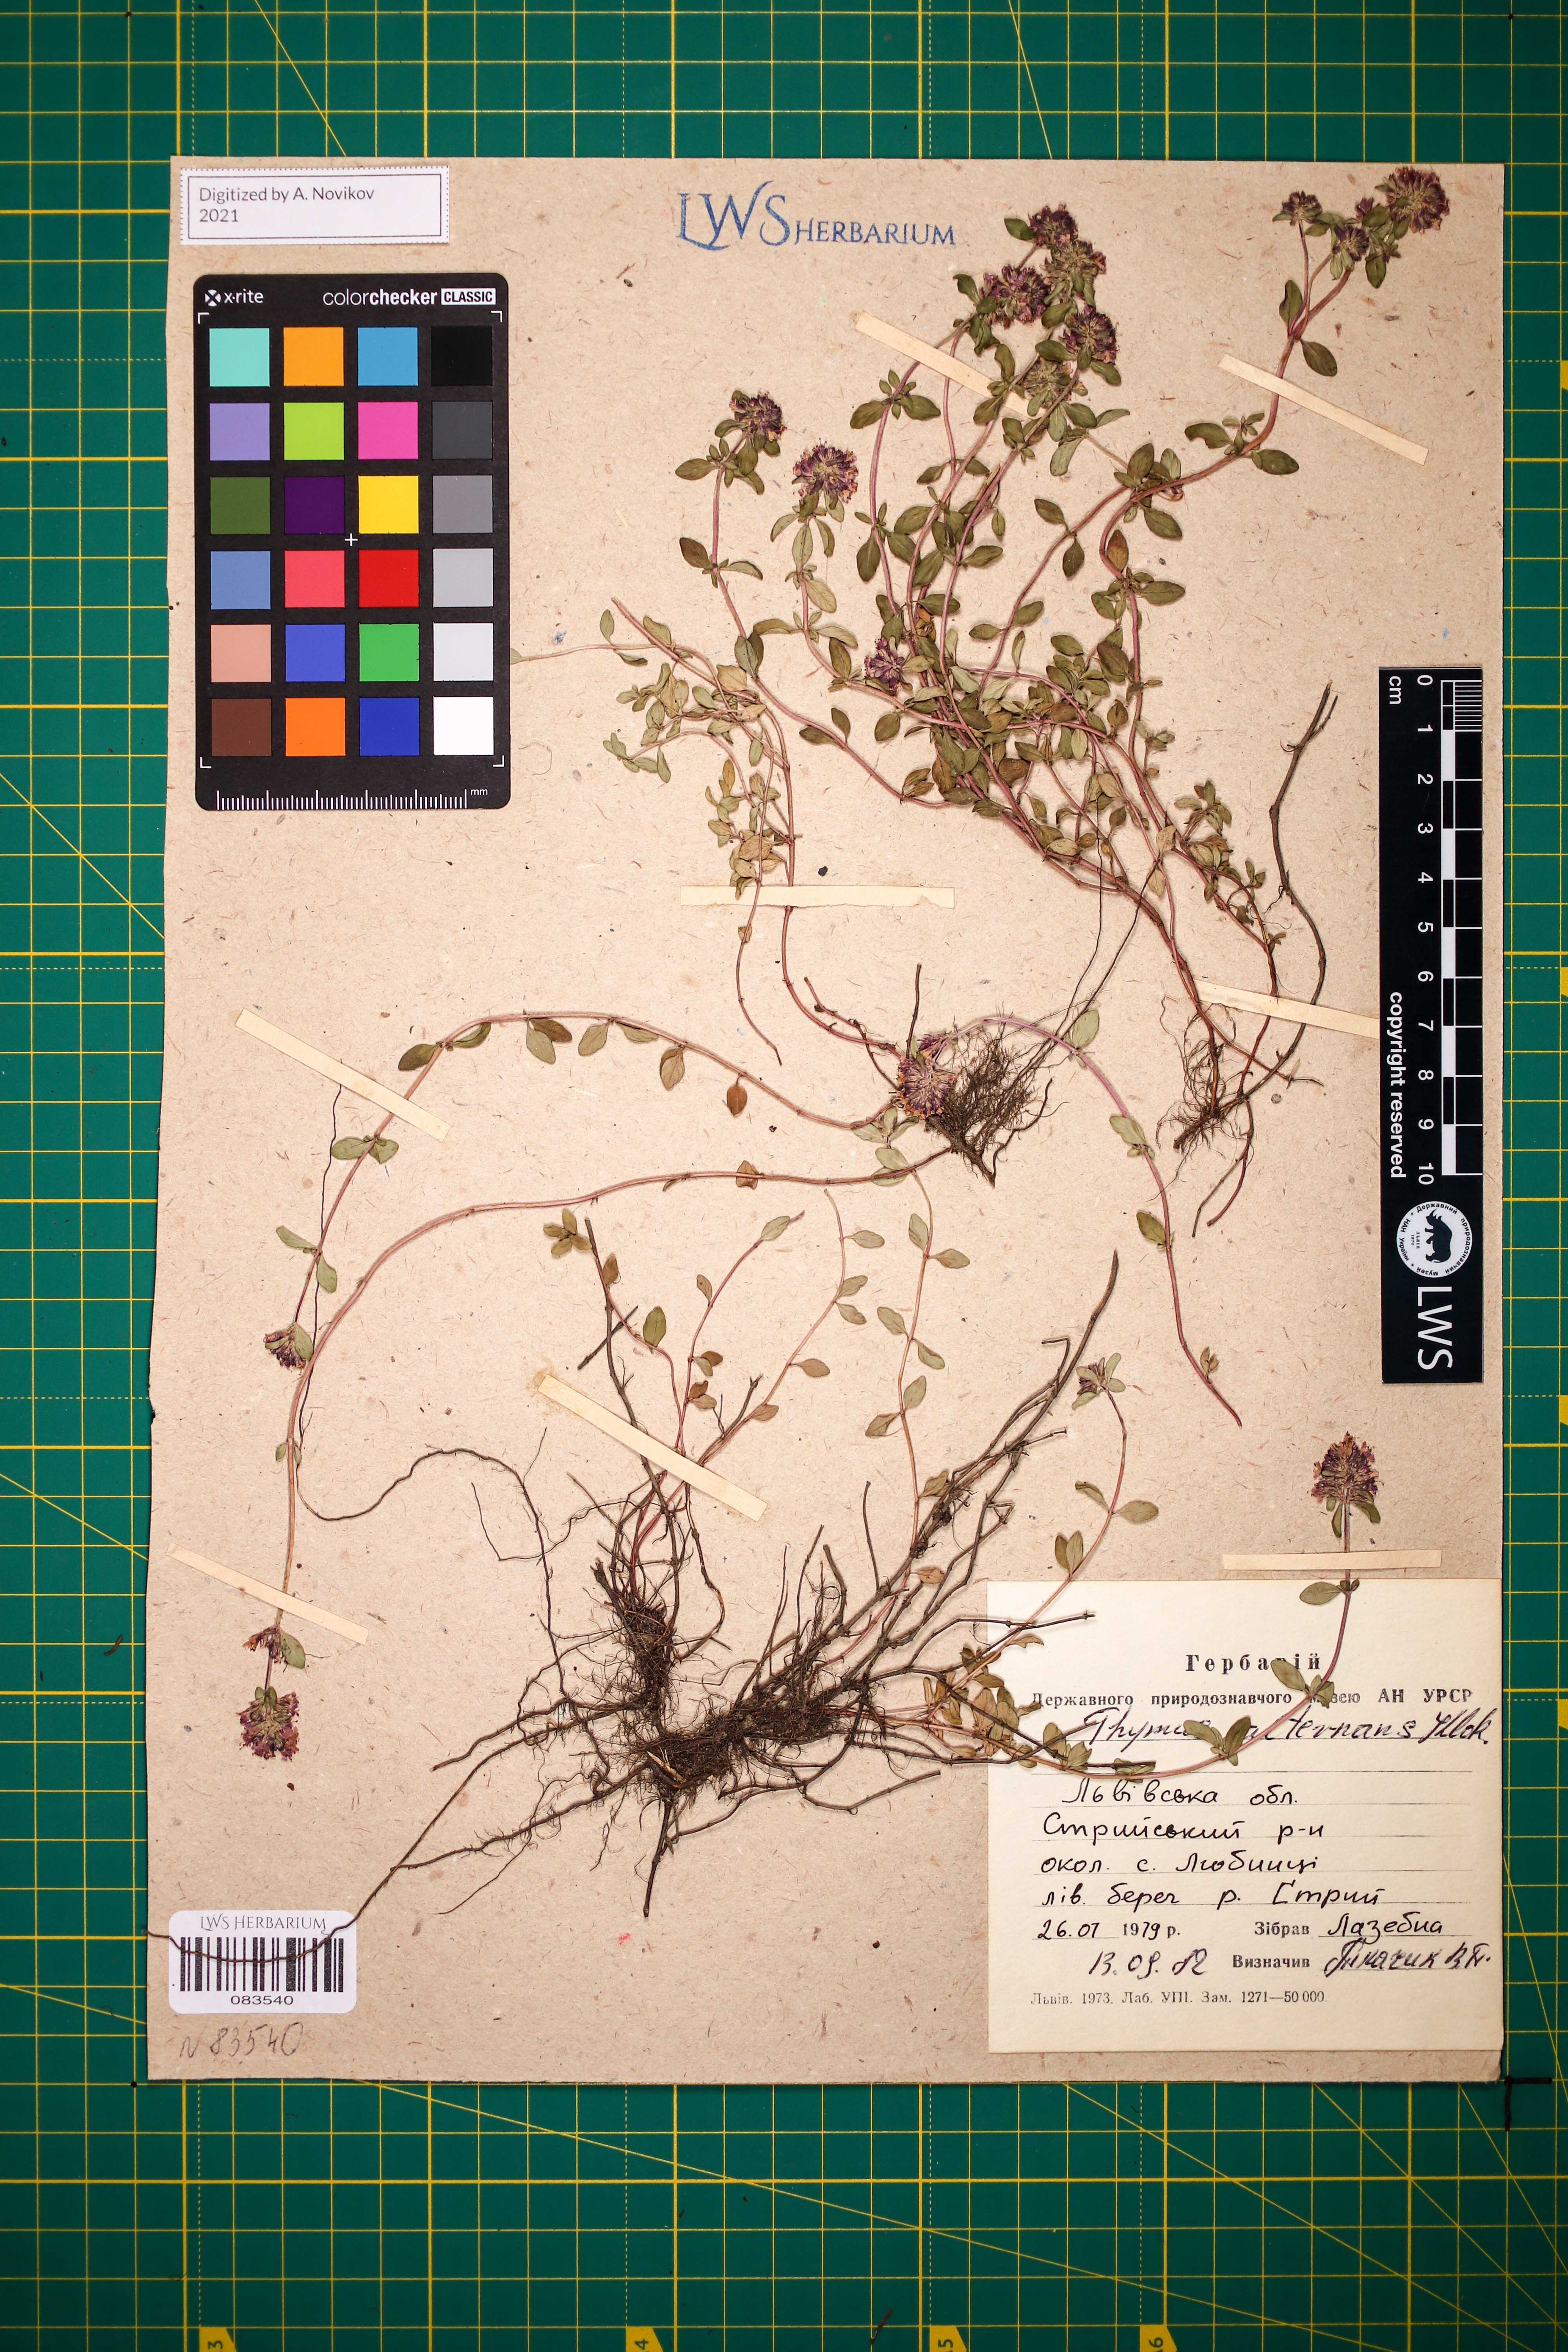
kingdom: Plantae
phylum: Tracheophyta
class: Magnoliopsida
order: Lamiales
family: Lamiaceae
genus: Thymus
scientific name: Thymus alternans
